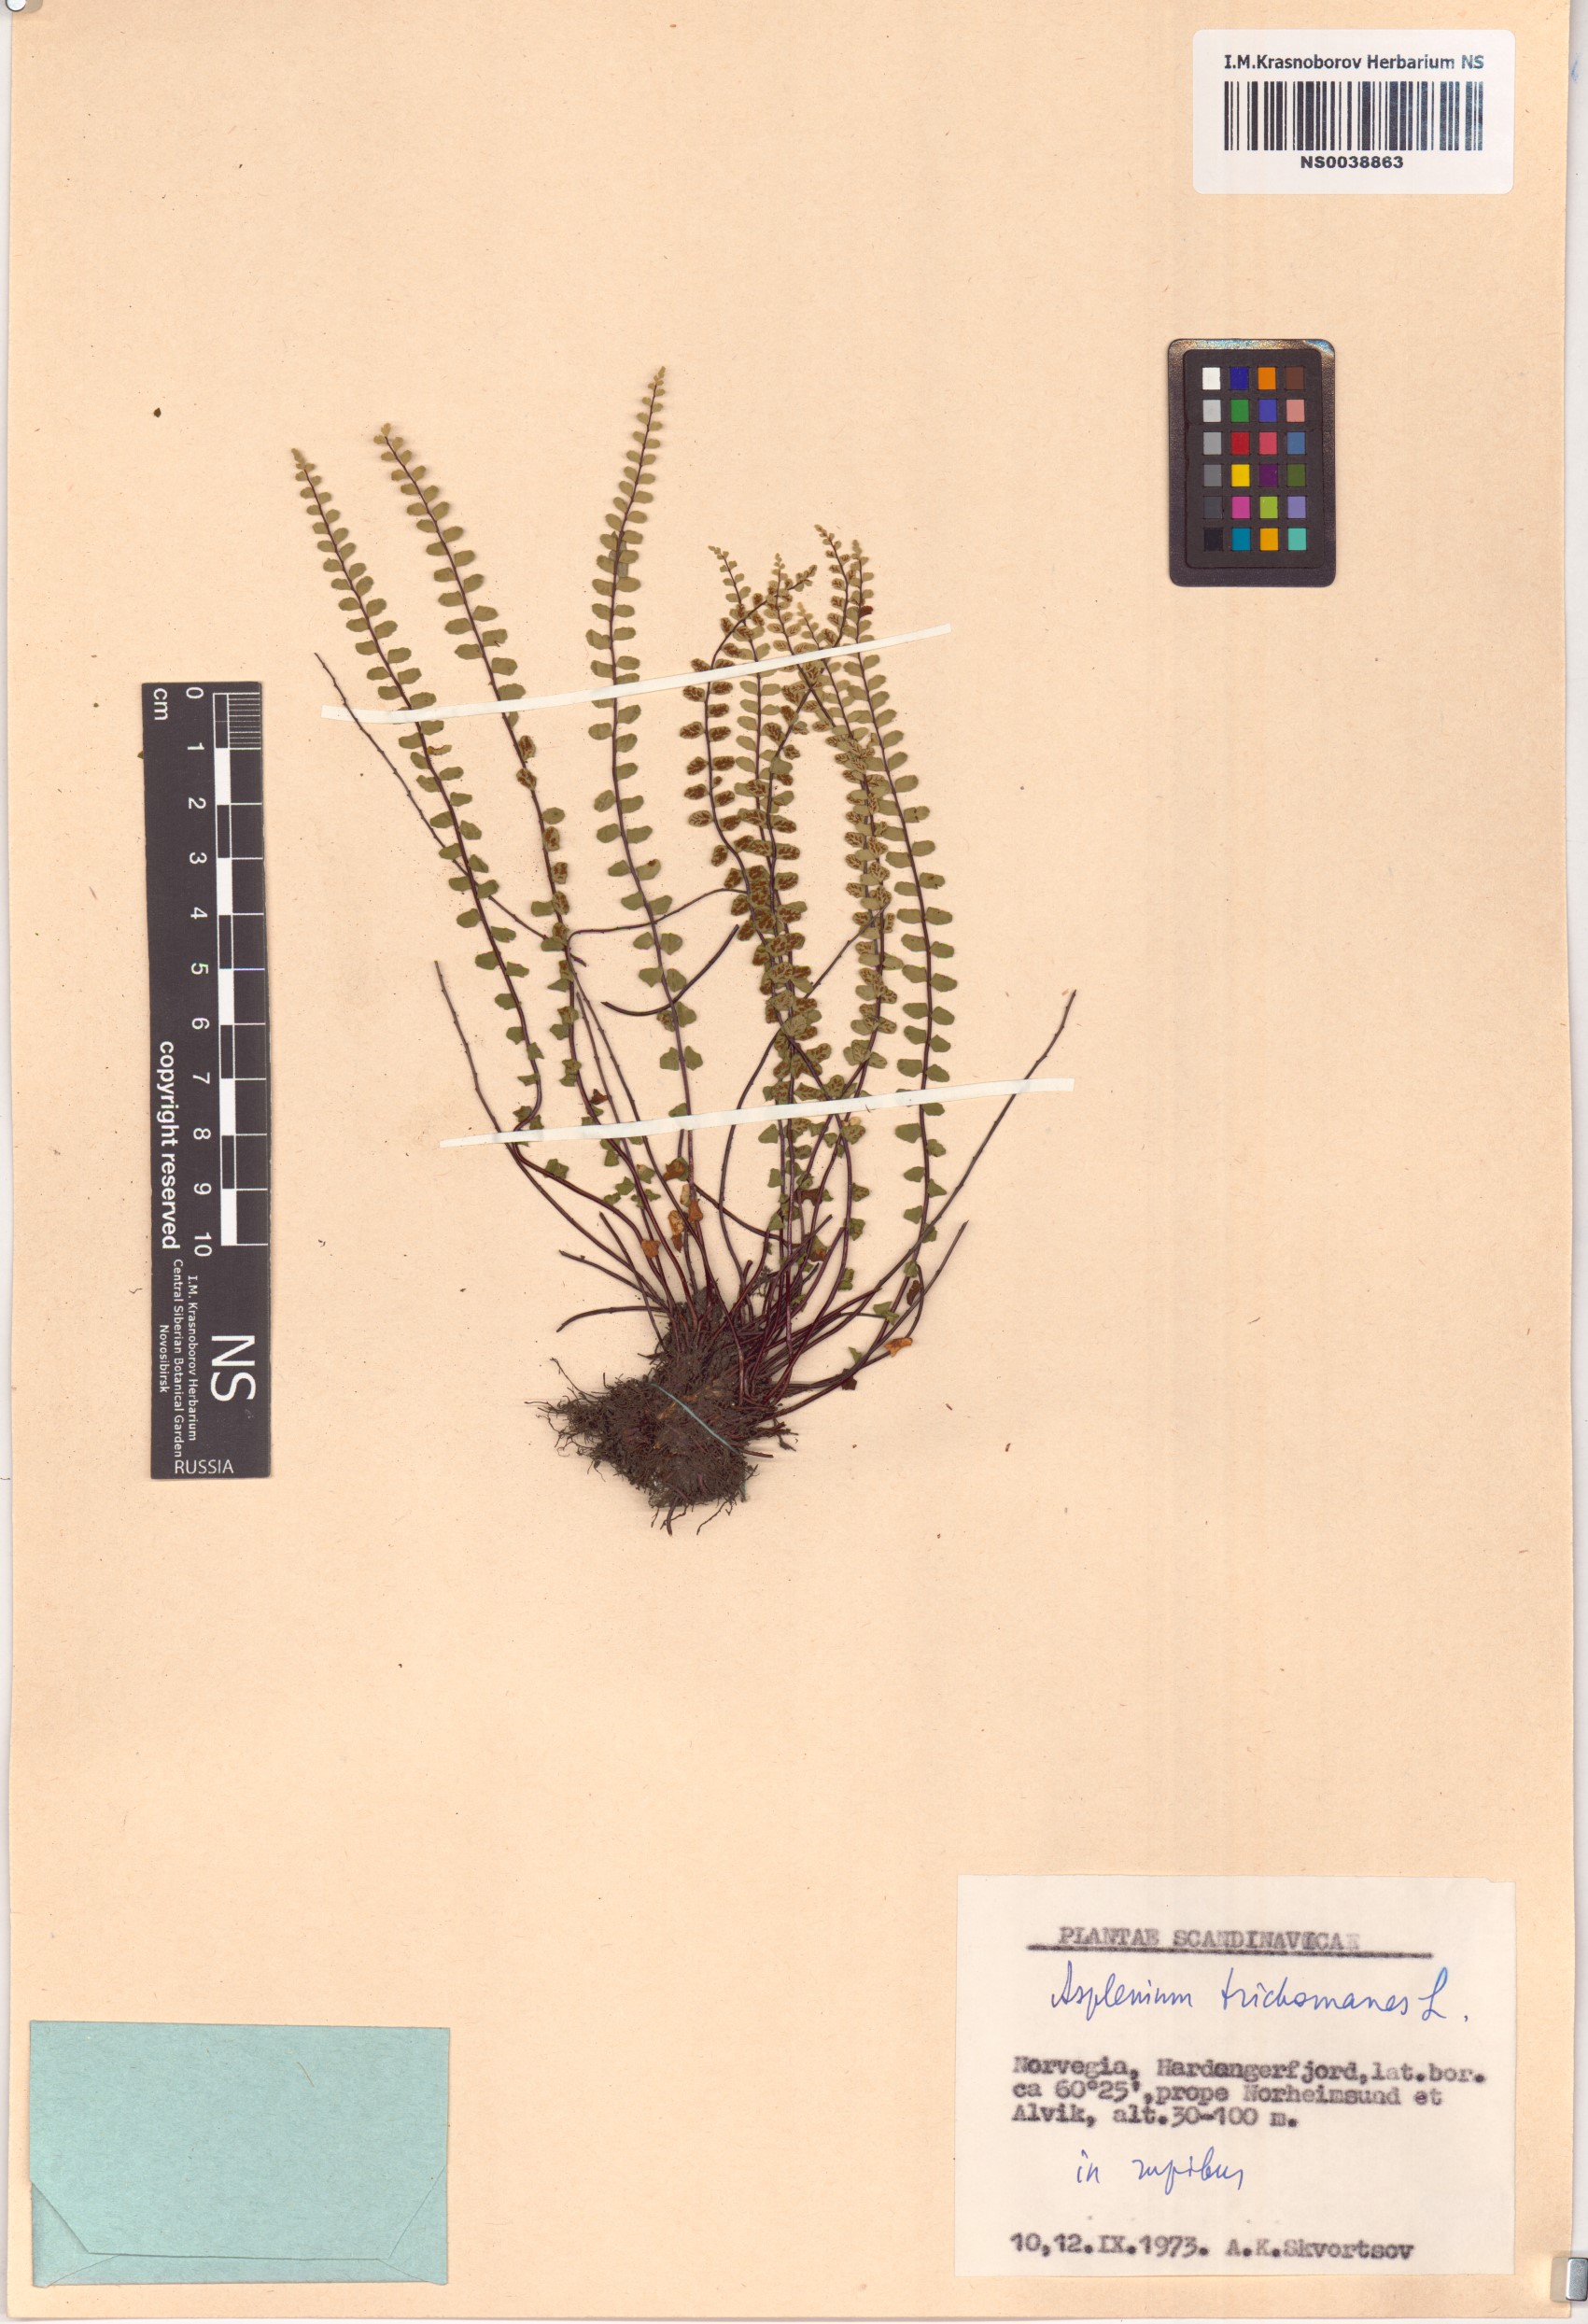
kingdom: Plantae
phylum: Tracheophyta
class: Polypodiopsida
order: Polypodiales
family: Aspleniaceae
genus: Asplenium
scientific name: Asplenium trichomanes
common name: Maidenhair spleenwort
